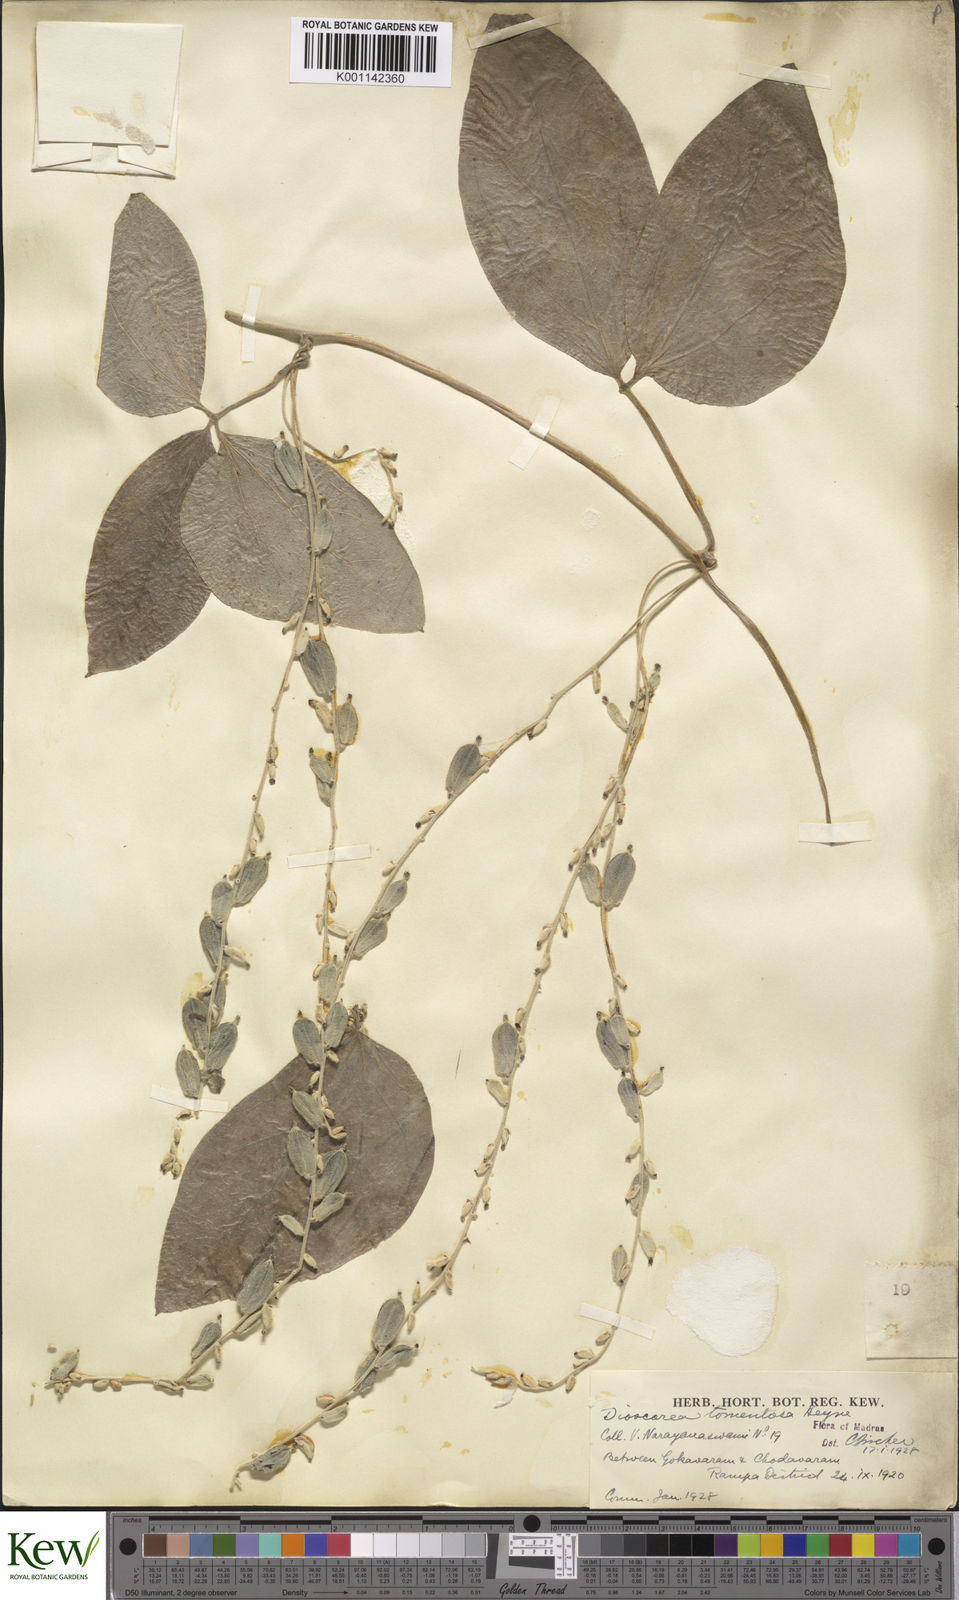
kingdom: Plantae
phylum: Tracheophyta
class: Liliopsida
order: Dioscoreales
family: Dioscoreaceae
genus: Dioscorea
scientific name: Dioscorea
